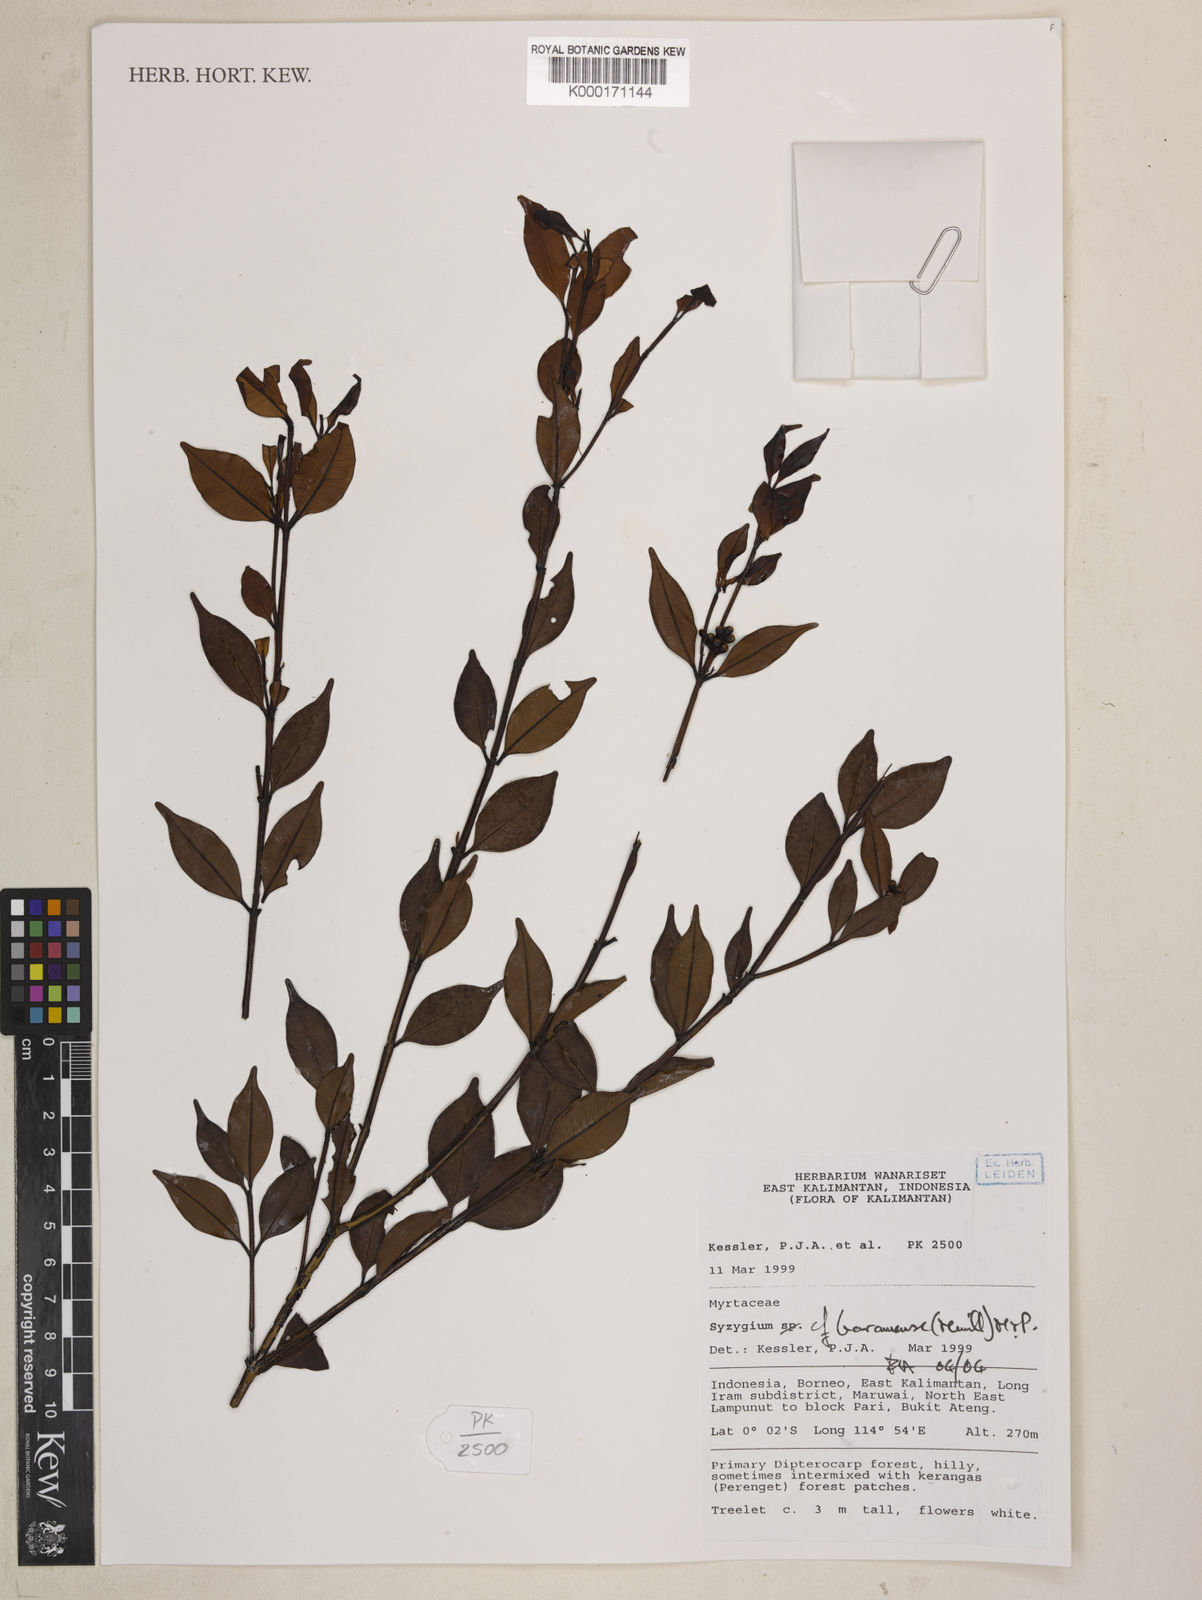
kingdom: Plantae
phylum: Tracheophyta
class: Magnoliopsida
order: Myrtales
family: Myrtaceae
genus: Syzygium
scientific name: Syzygium baramense
